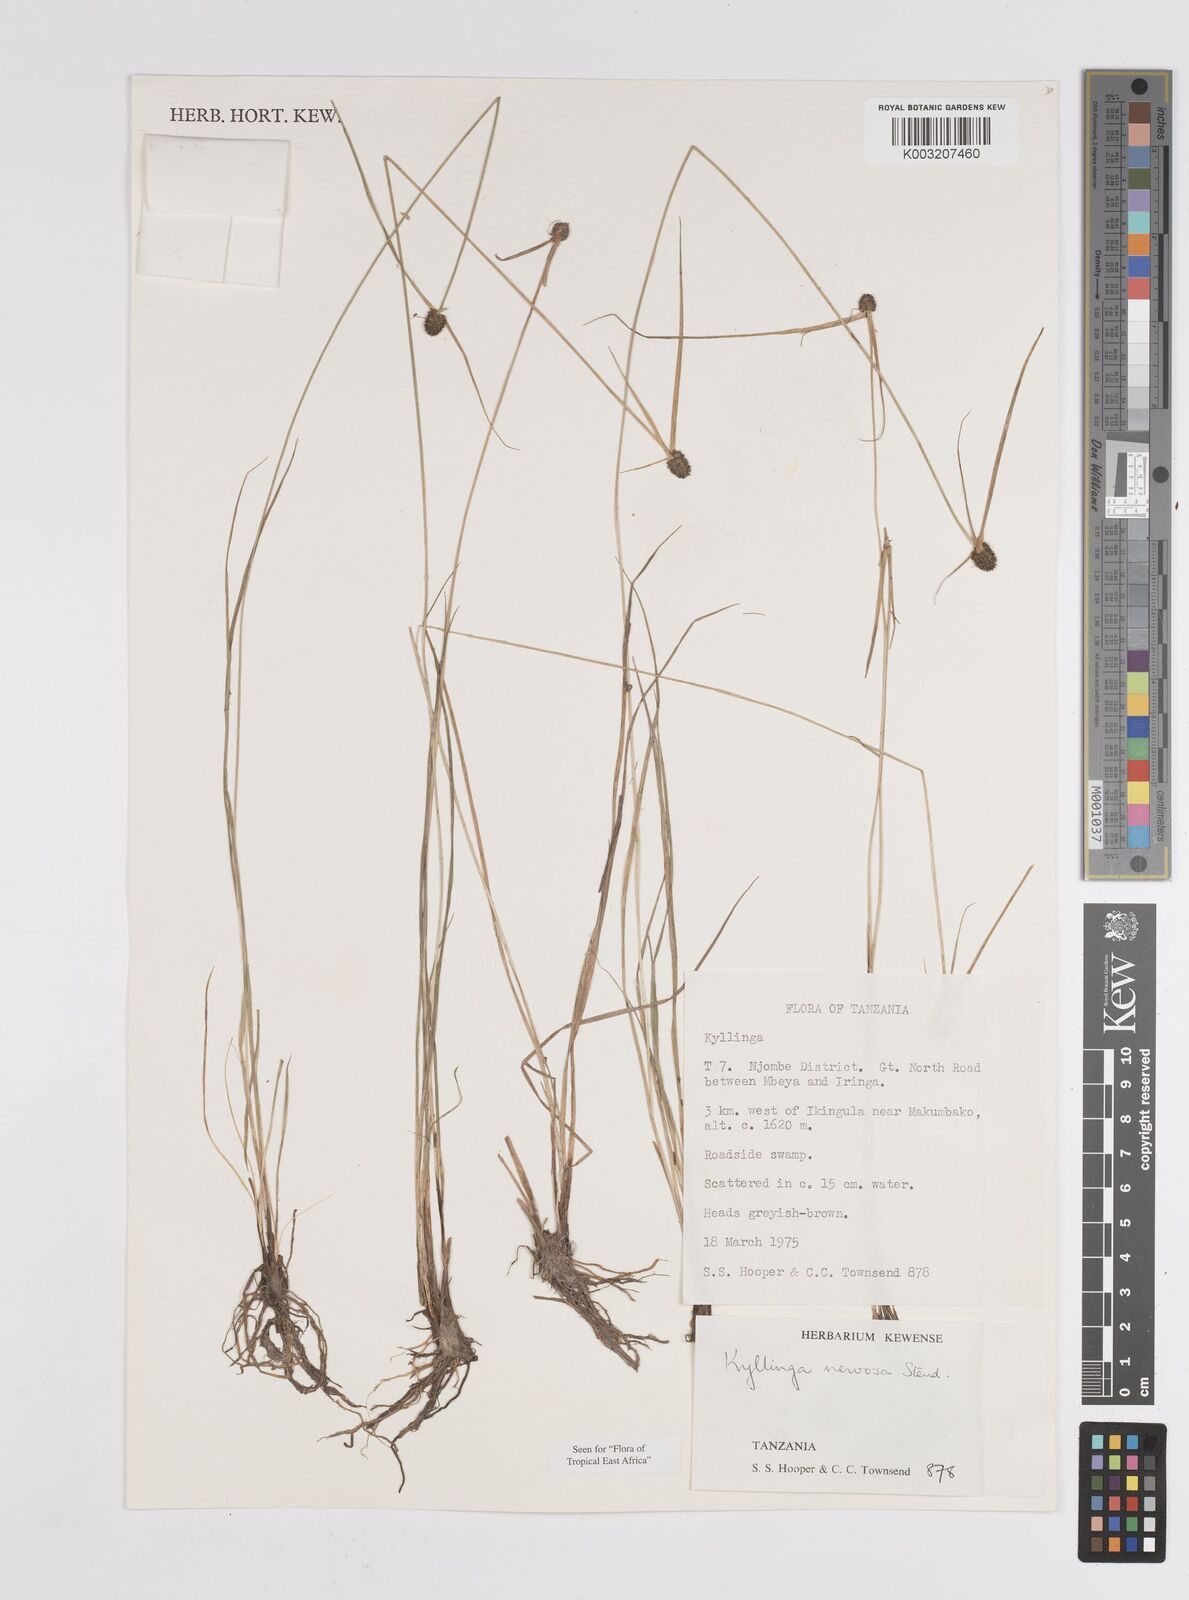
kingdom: Plantae
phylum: Tracheophyta
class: Liliopsida
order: Poales
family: Cyperaceae
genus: Cyperus
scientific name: Cyperus
